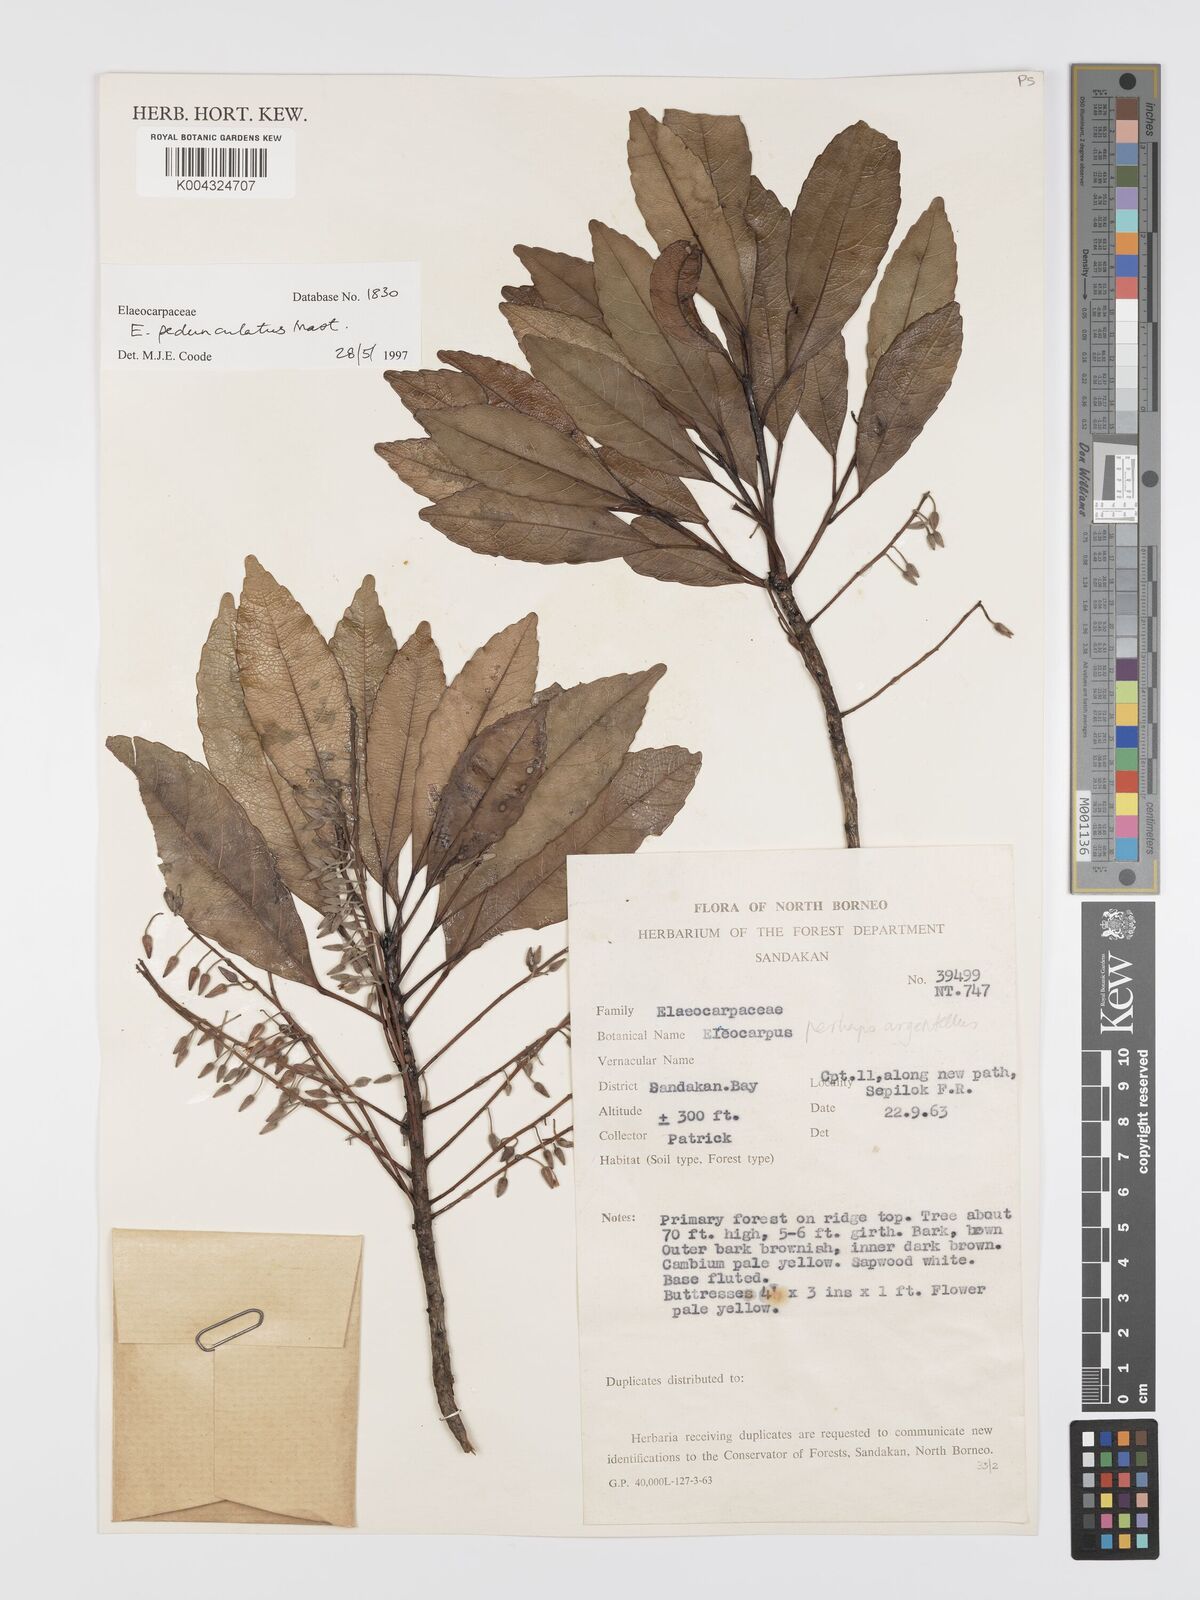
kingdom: Plantae
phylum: Tracheophyta
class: Magnoliopsida
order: Oxalidales
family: Elaeocarpaceae
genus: Elaeocarpus
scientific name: Elaeocarpus pedunculatus
